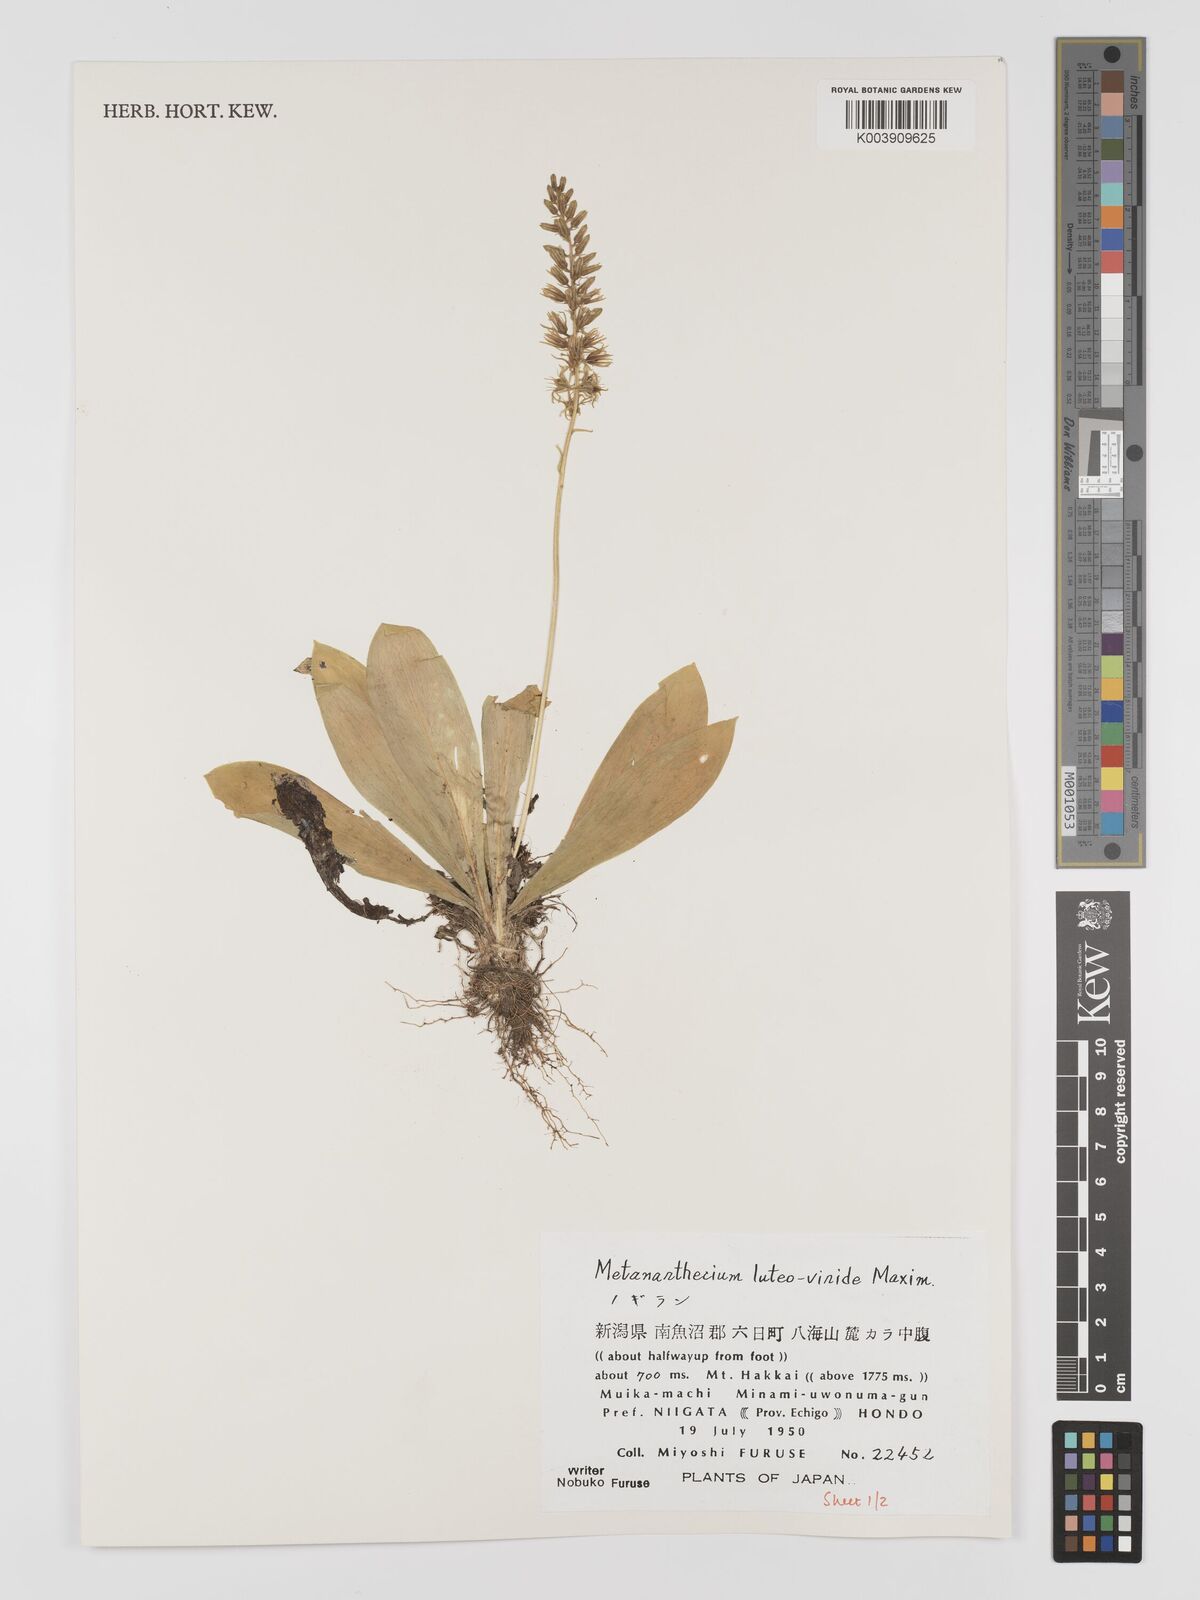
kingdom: Plantae
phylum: Tracheophyta
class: Liliopsida
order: Dioscoreales
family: Nartheciaceae
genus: Metanarthecium
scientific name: Metanarthecium luteoviride
